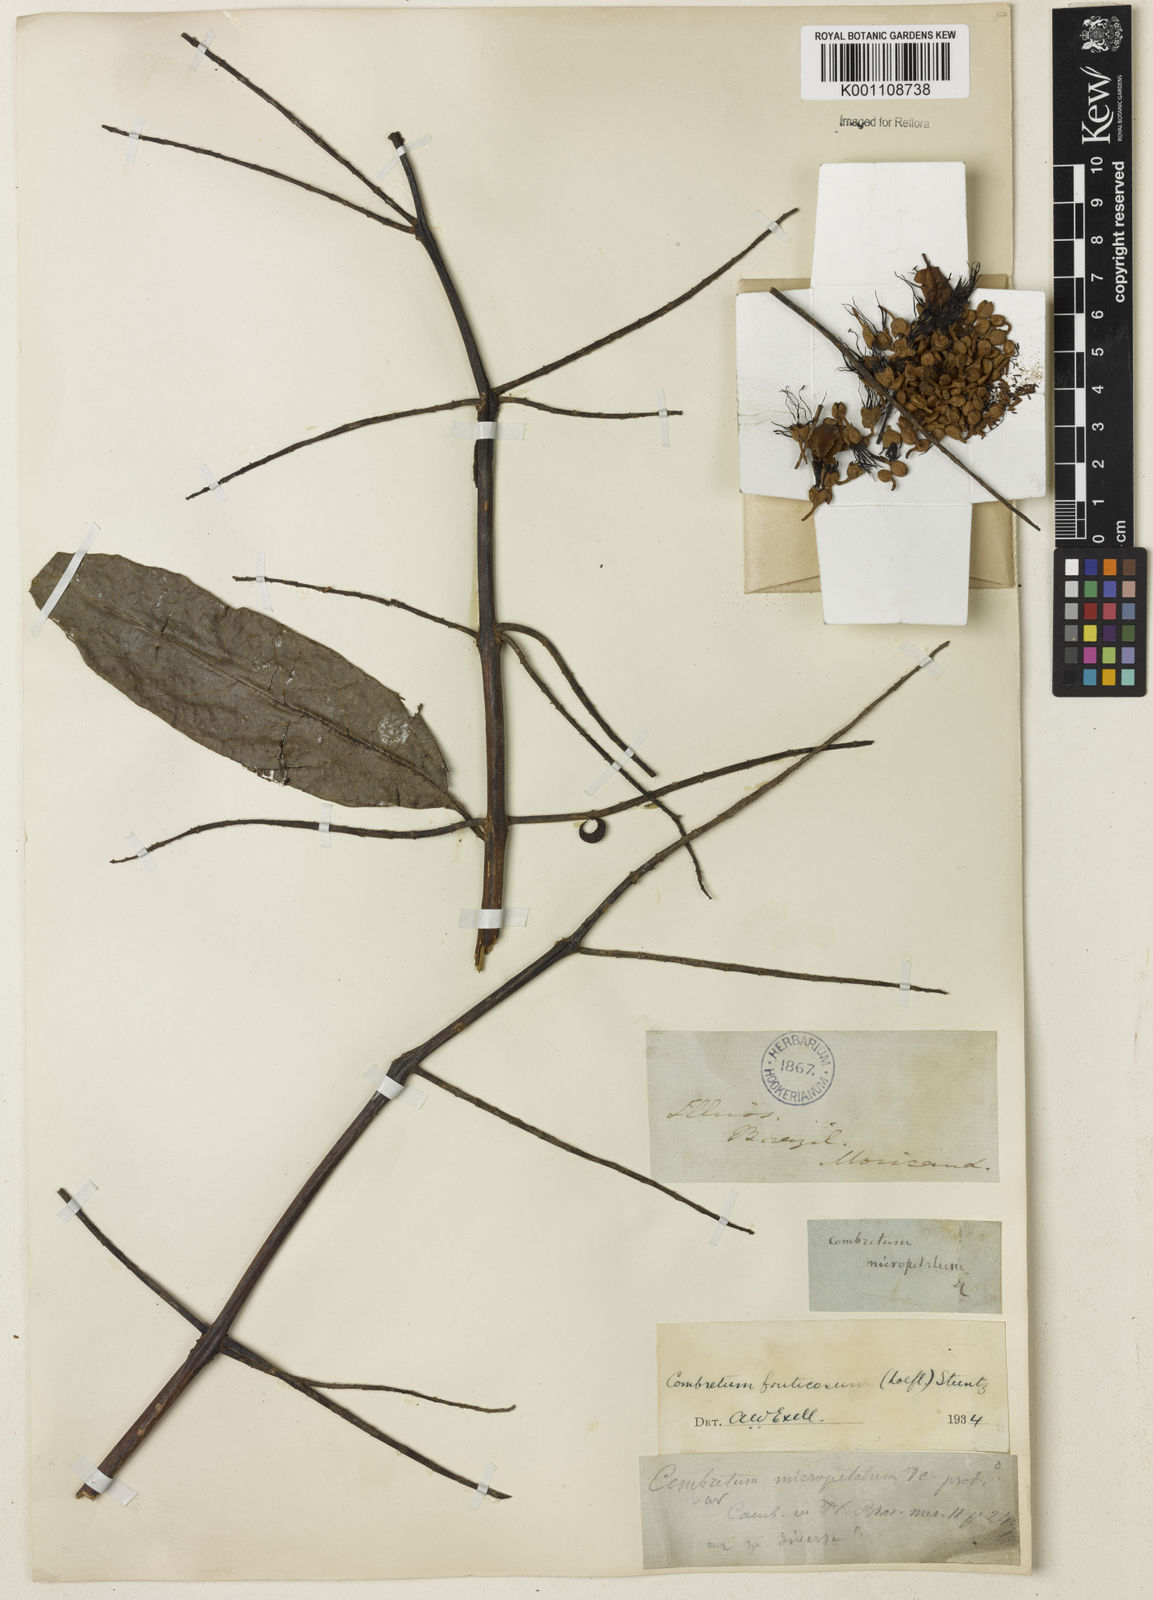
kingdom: Plantae
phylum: Tracheophyta
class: Magnoliopsida
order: Myrtales
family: Combretaceae
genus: Combretum
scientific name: Combretum fruticosum
